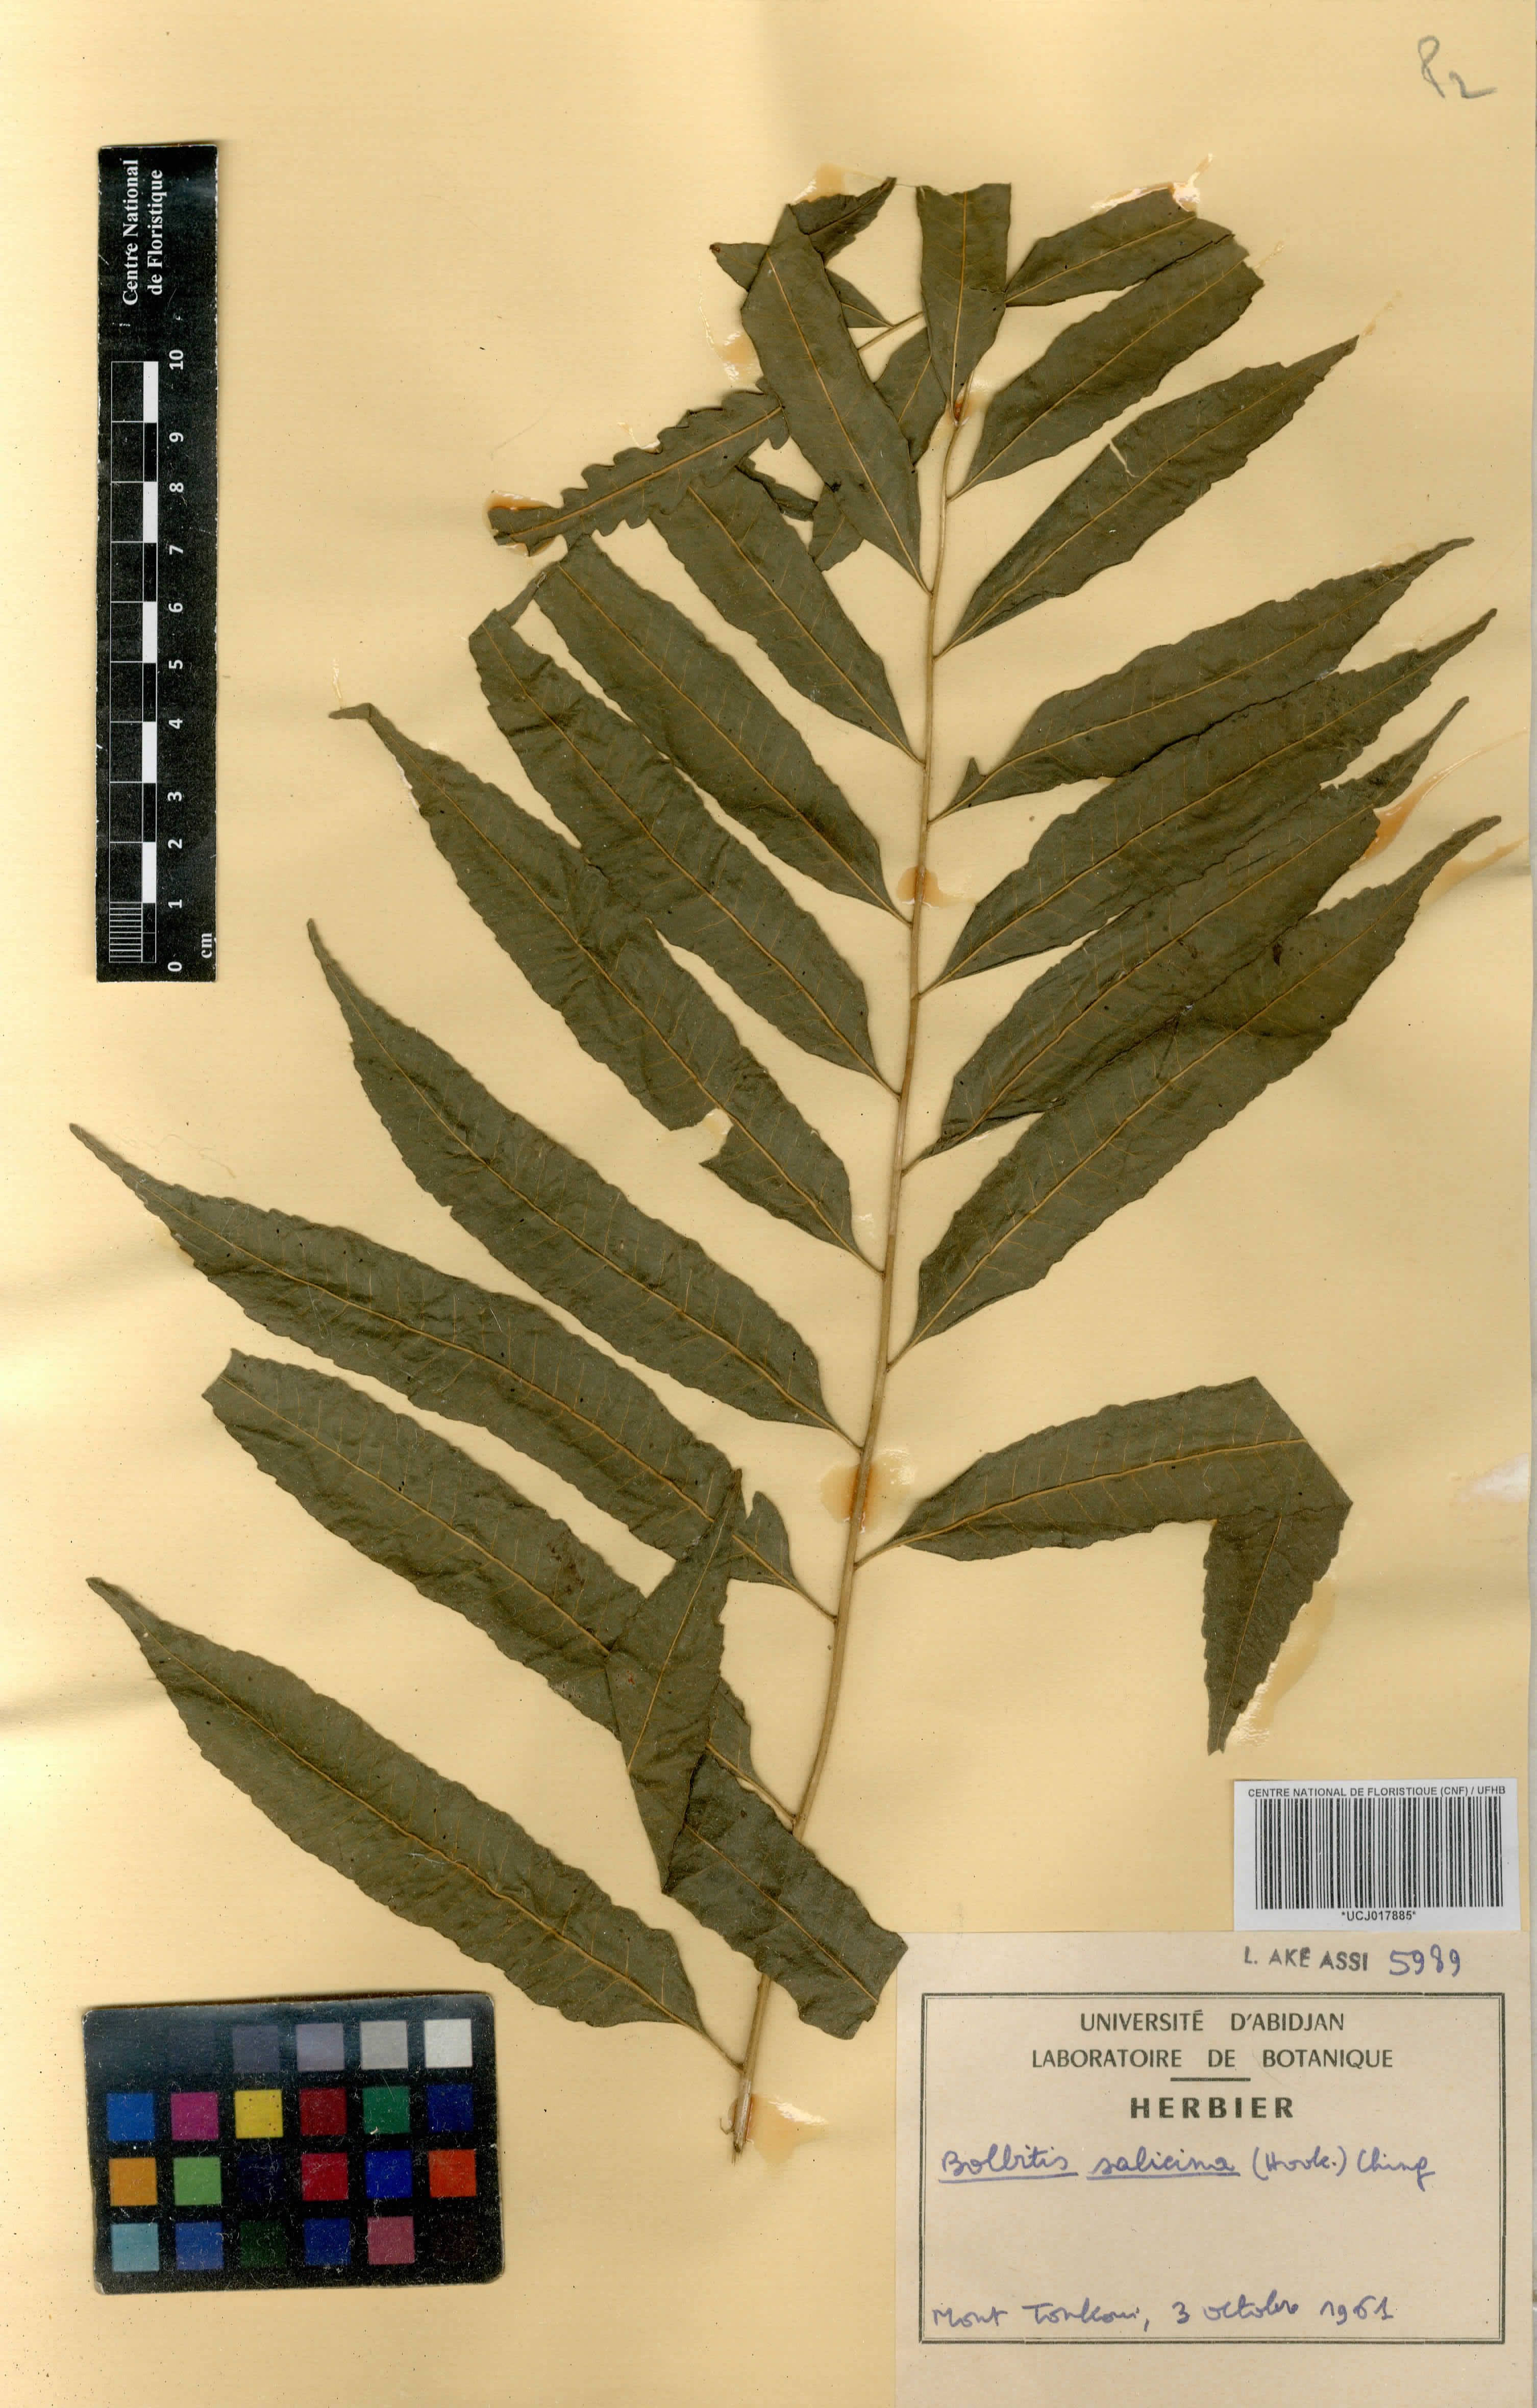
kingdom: Plantae
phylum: Tracheophyta
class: Polypodiopsida
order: Polypodiales
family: Dryopteridaceae
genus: Bolbitis
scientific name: Bolbitis salicina
